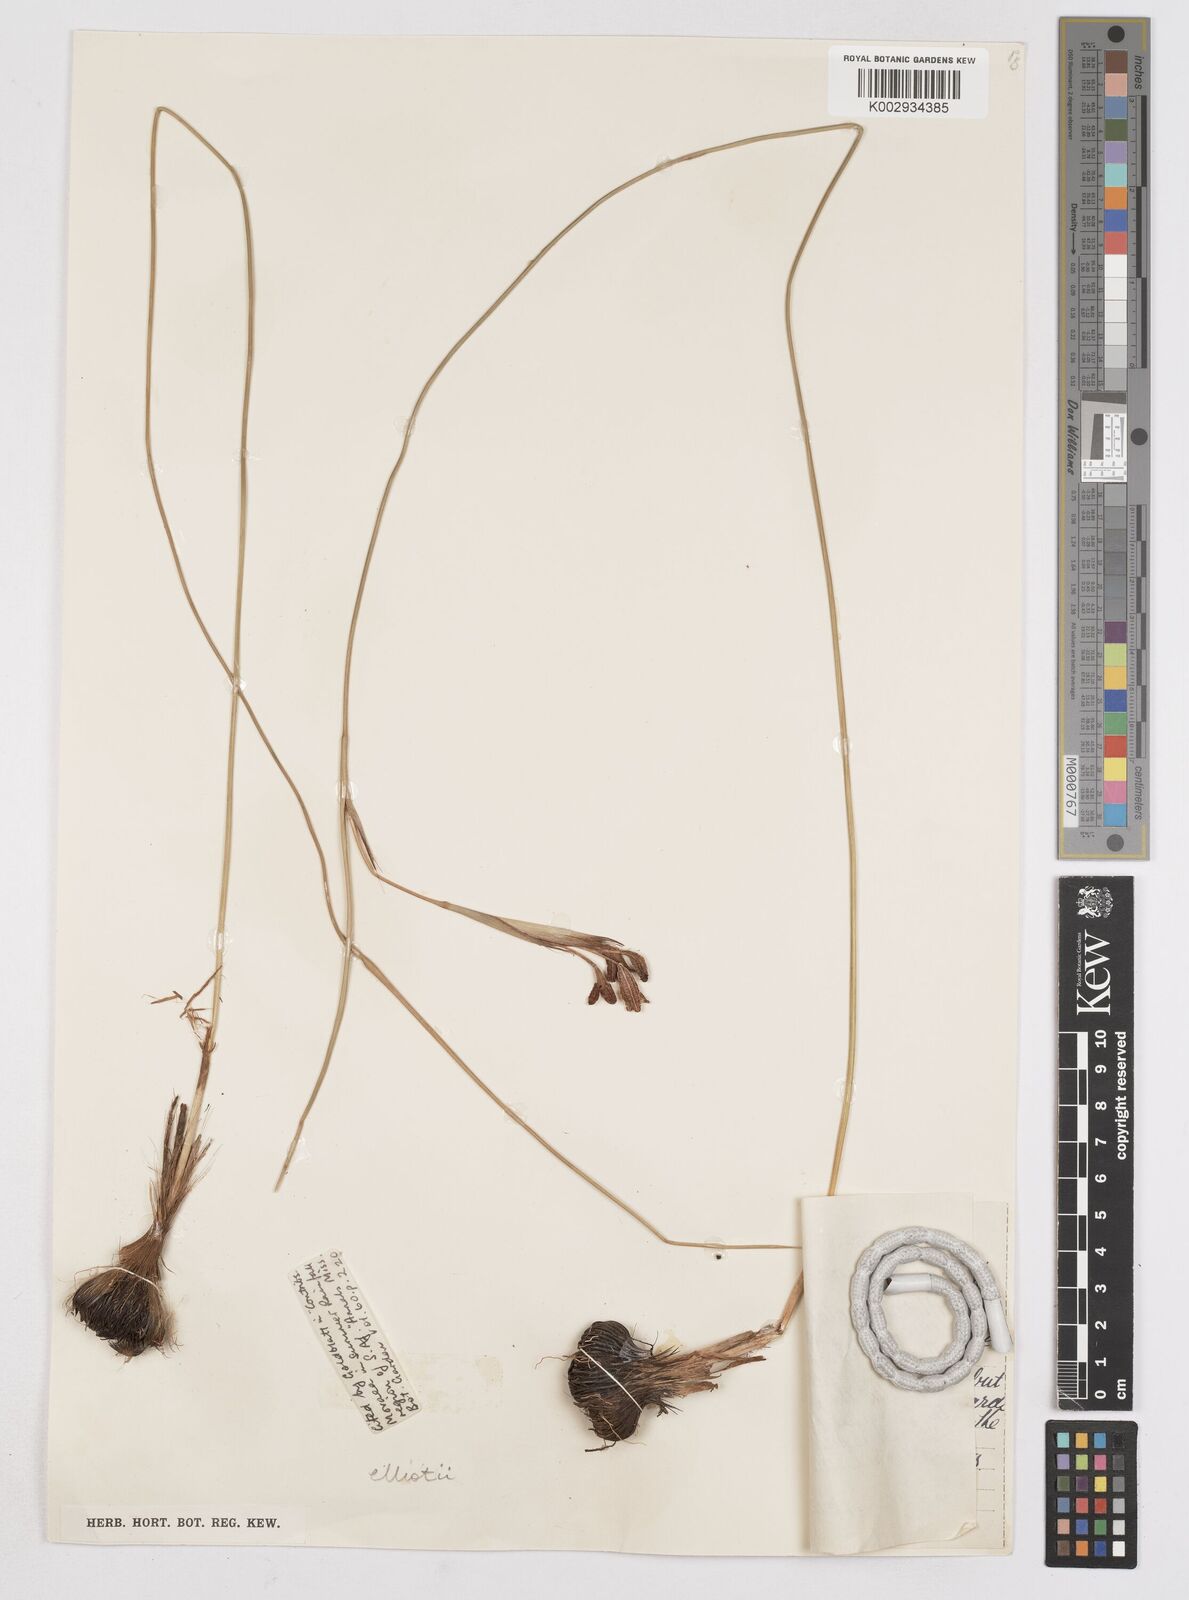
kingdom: Plantae
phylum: Tracheophyta
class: Liliopsida
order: Asparagales
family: Iridaceae
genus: Moraea
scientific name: Moraea elliotii
